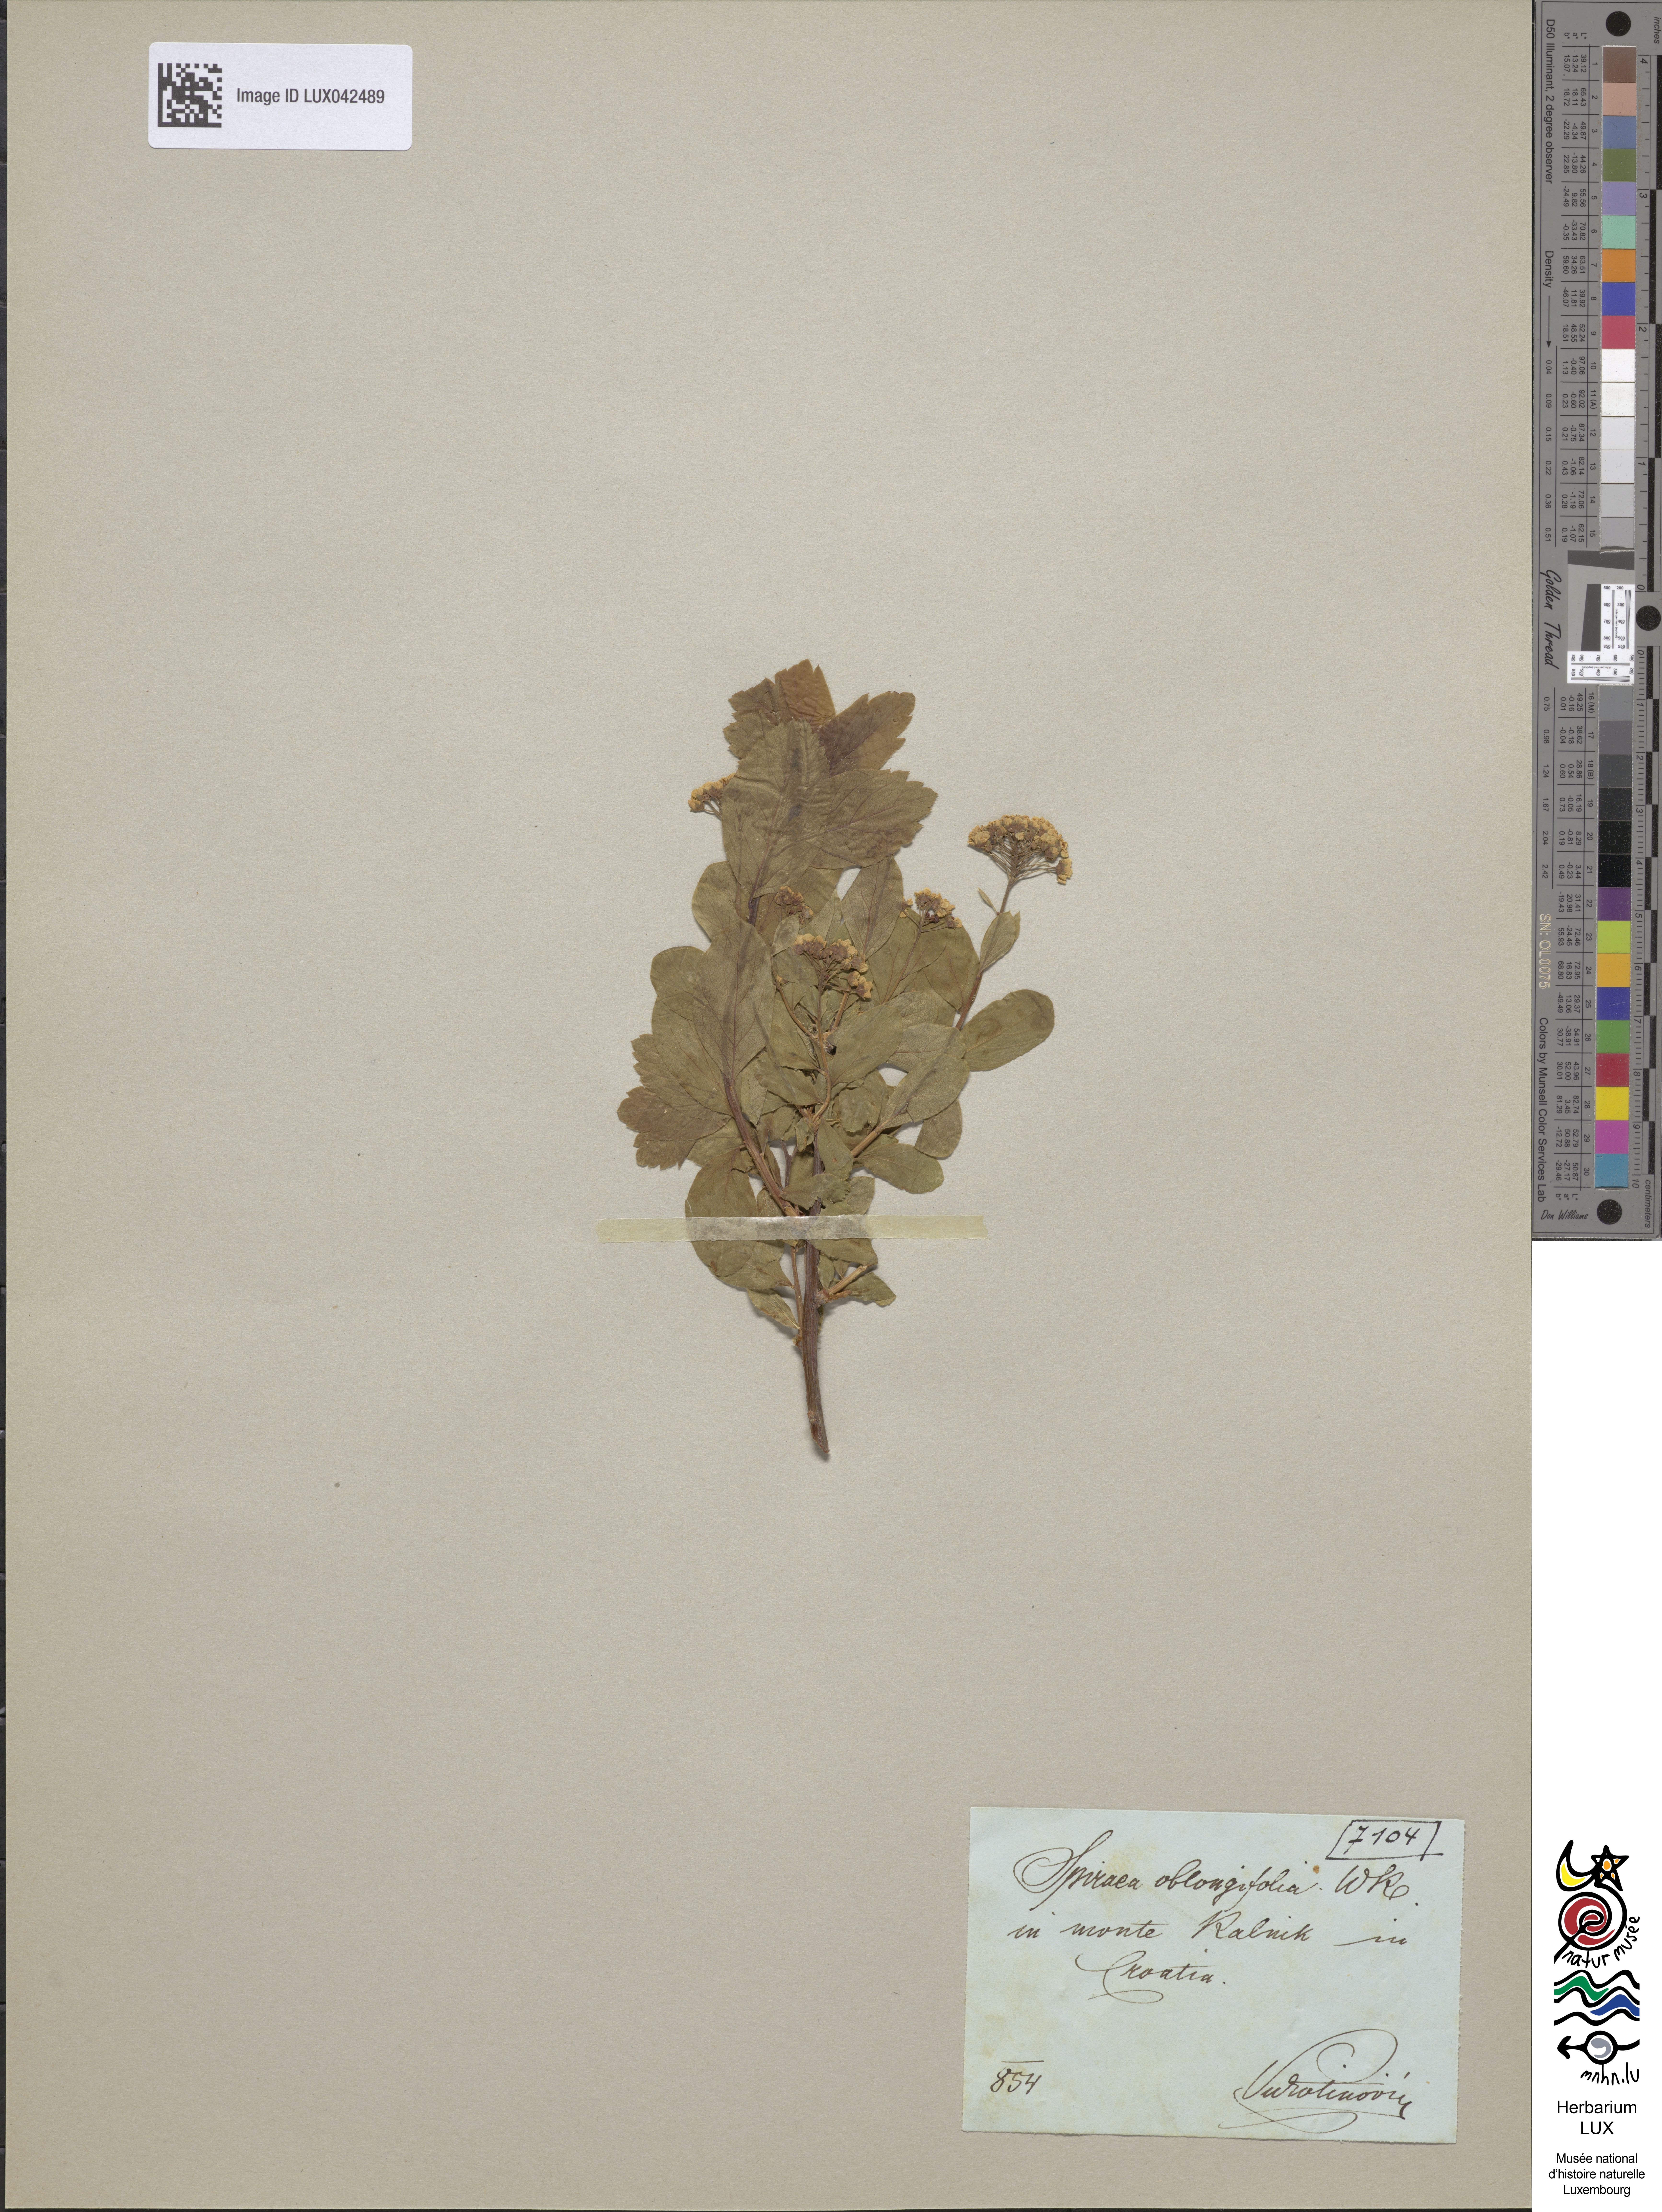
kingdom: Plantae
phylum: Tracheophyta
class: Magnoliopsida
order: Rosales
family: Rosaceae
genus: Spiraea
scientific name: Spiraea media
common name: Russian spiraea
